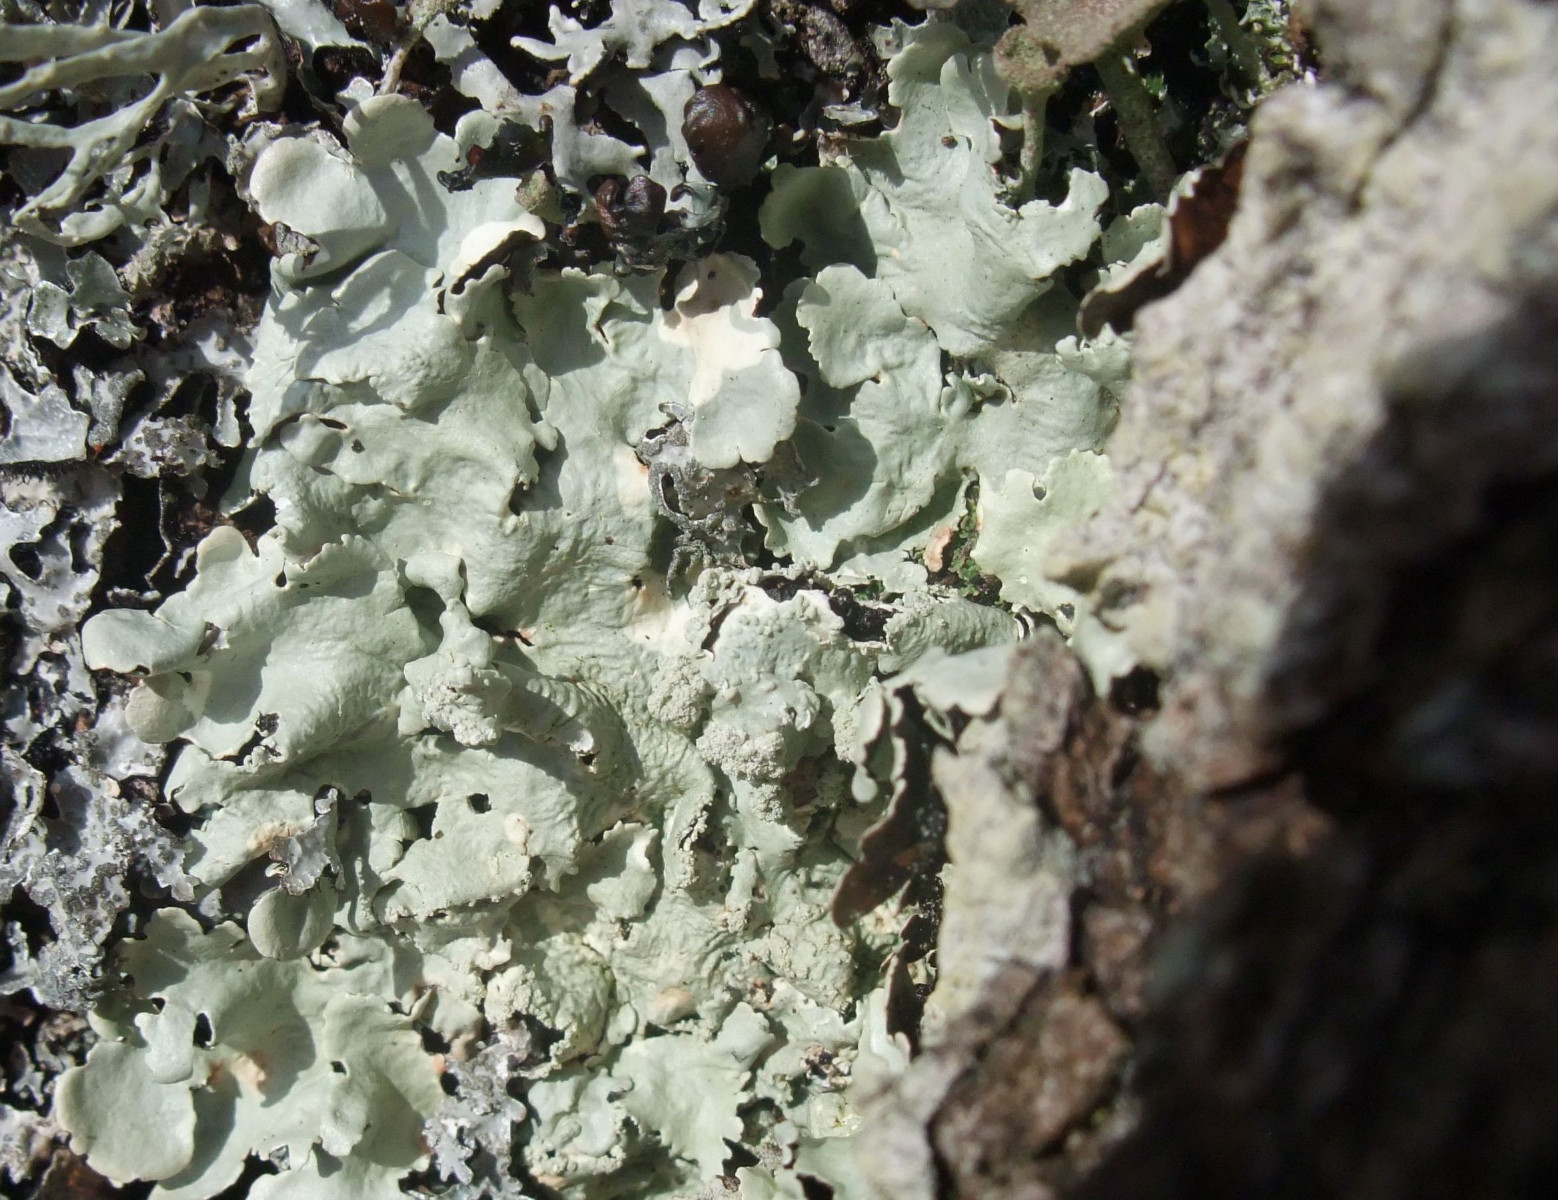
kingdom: Fungi
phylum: Ascomycota
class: Lecanoromycetes
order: Lecanorales
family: Parmeliaceae
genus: Flavoparmelia
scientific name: Flavoparmelia caperata
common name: gulgrøn skållav
